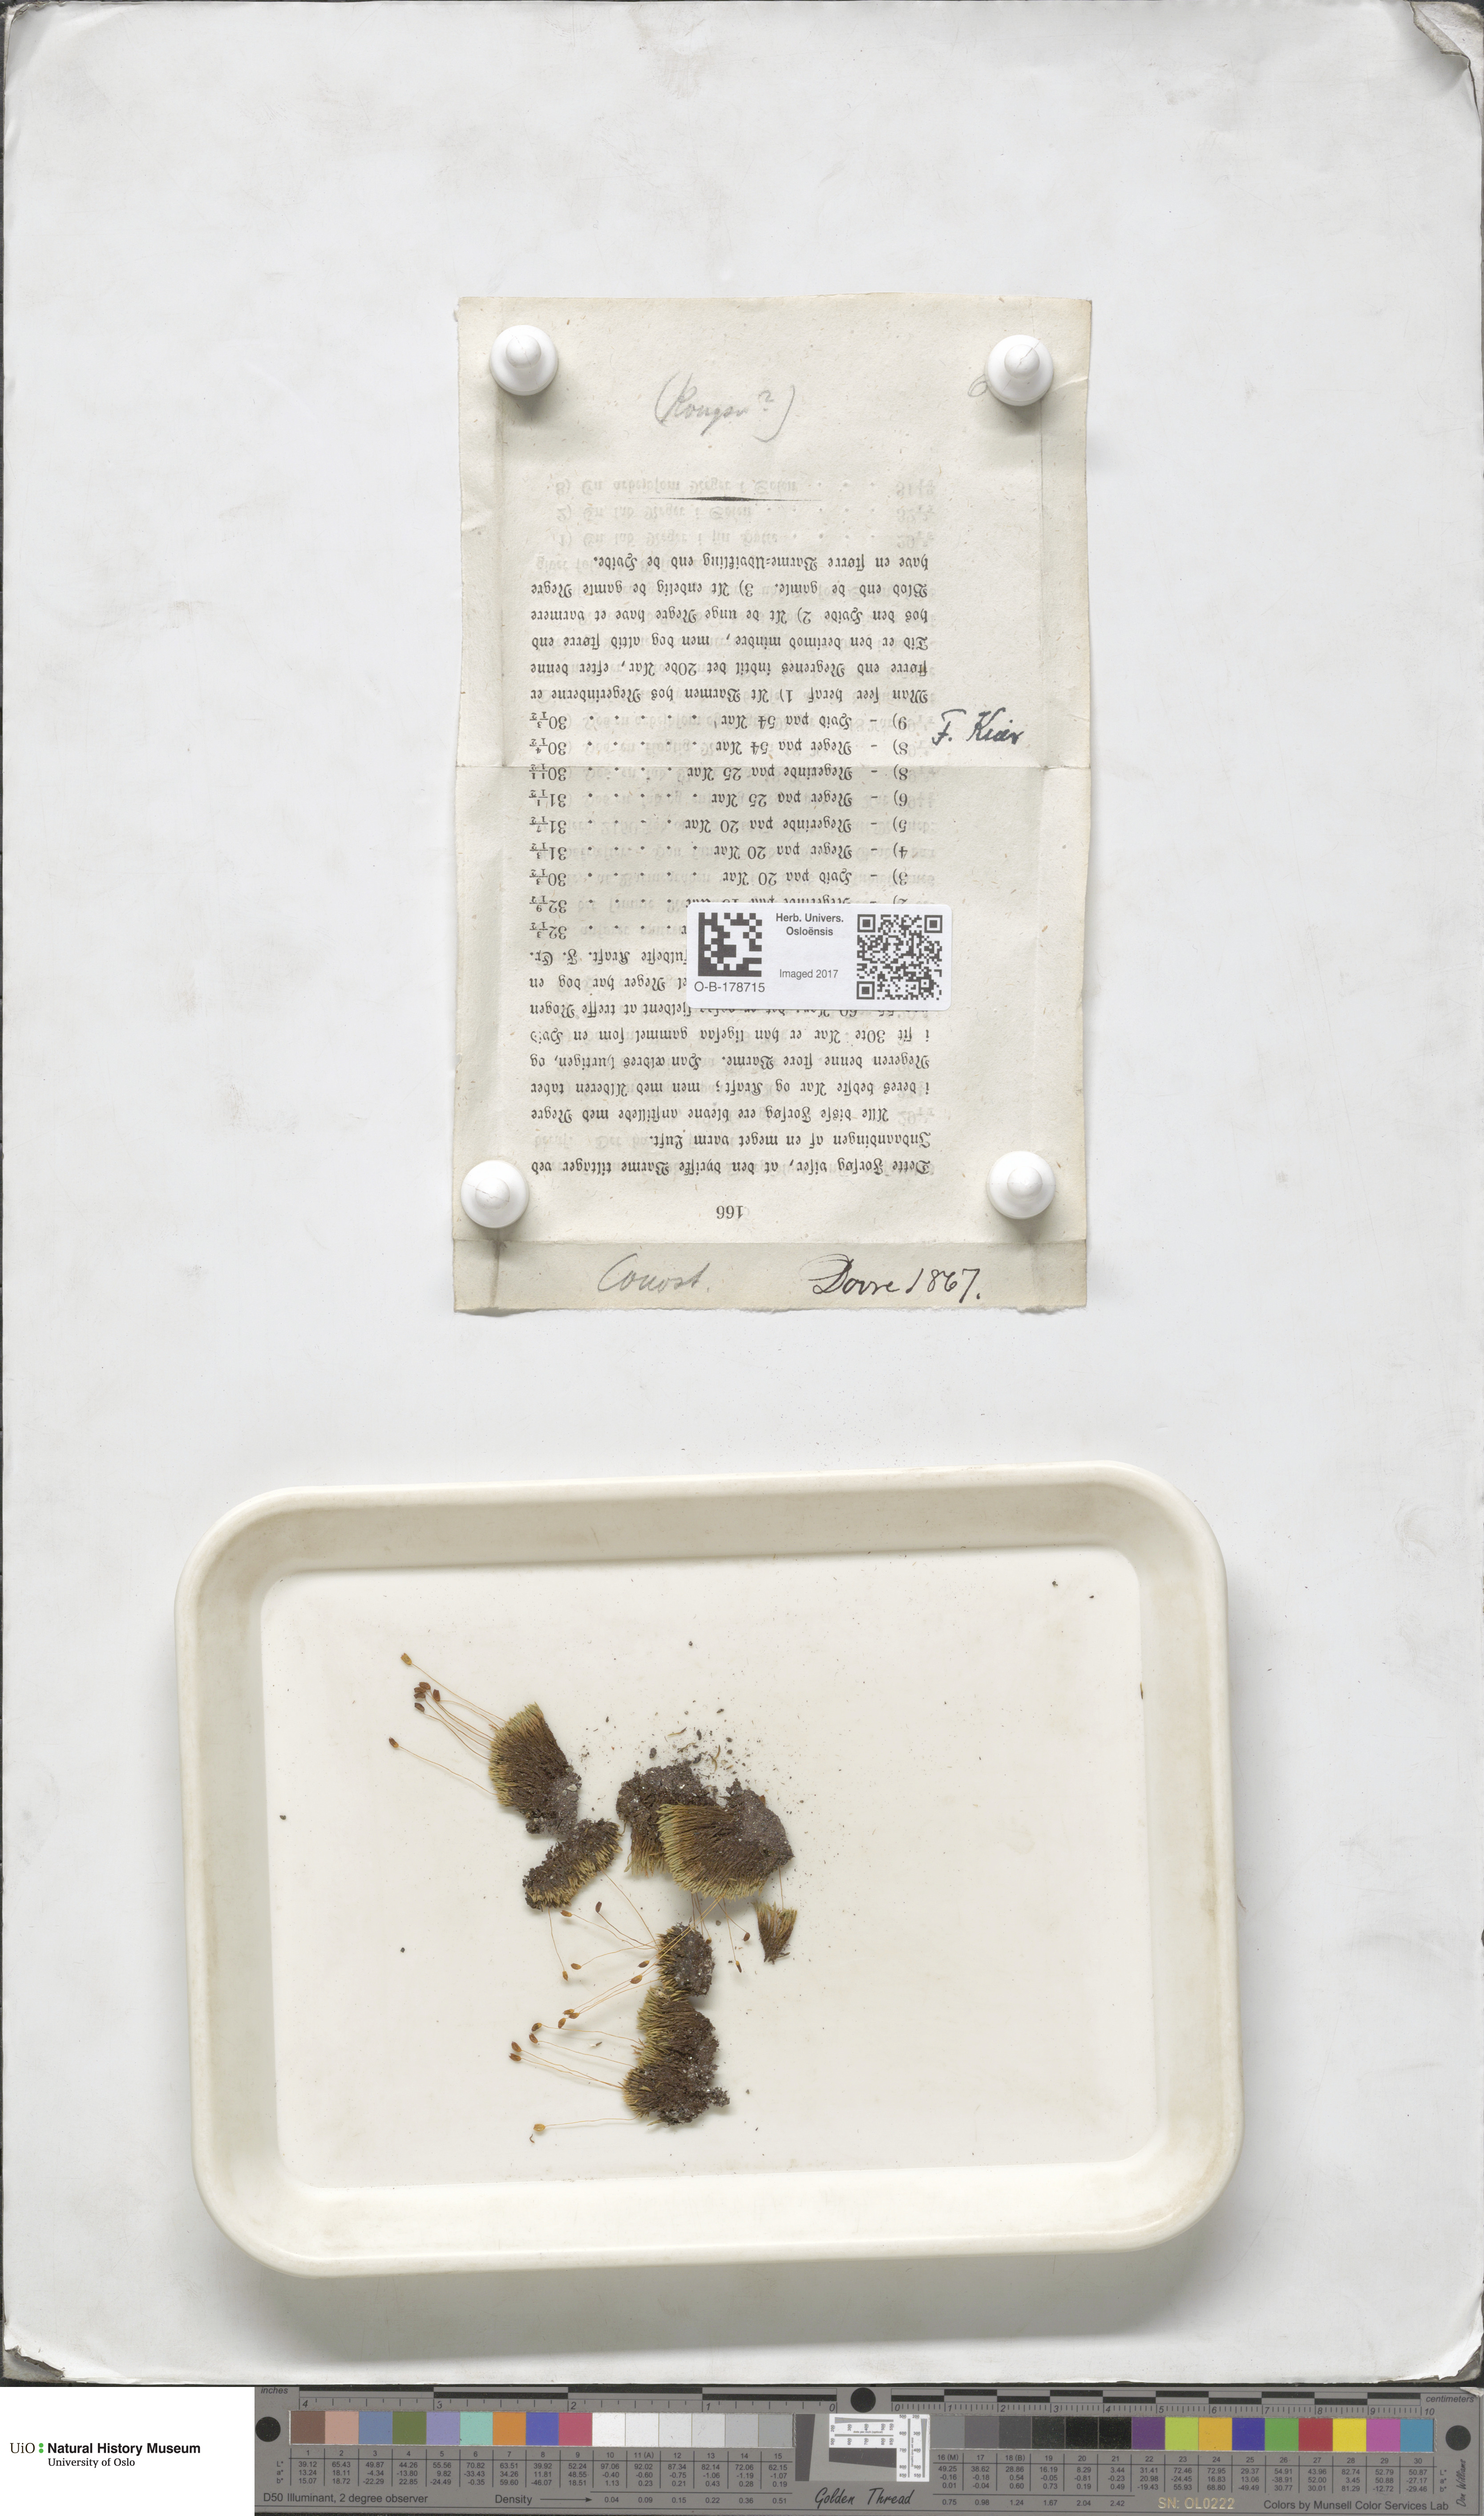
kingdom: Plantae
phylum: Bryophyta
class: Bryopsida
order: Bartramiales
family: Bartramiaceae
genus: Conostomum
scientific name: Conostomum tetragonum
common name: Helmet moss
